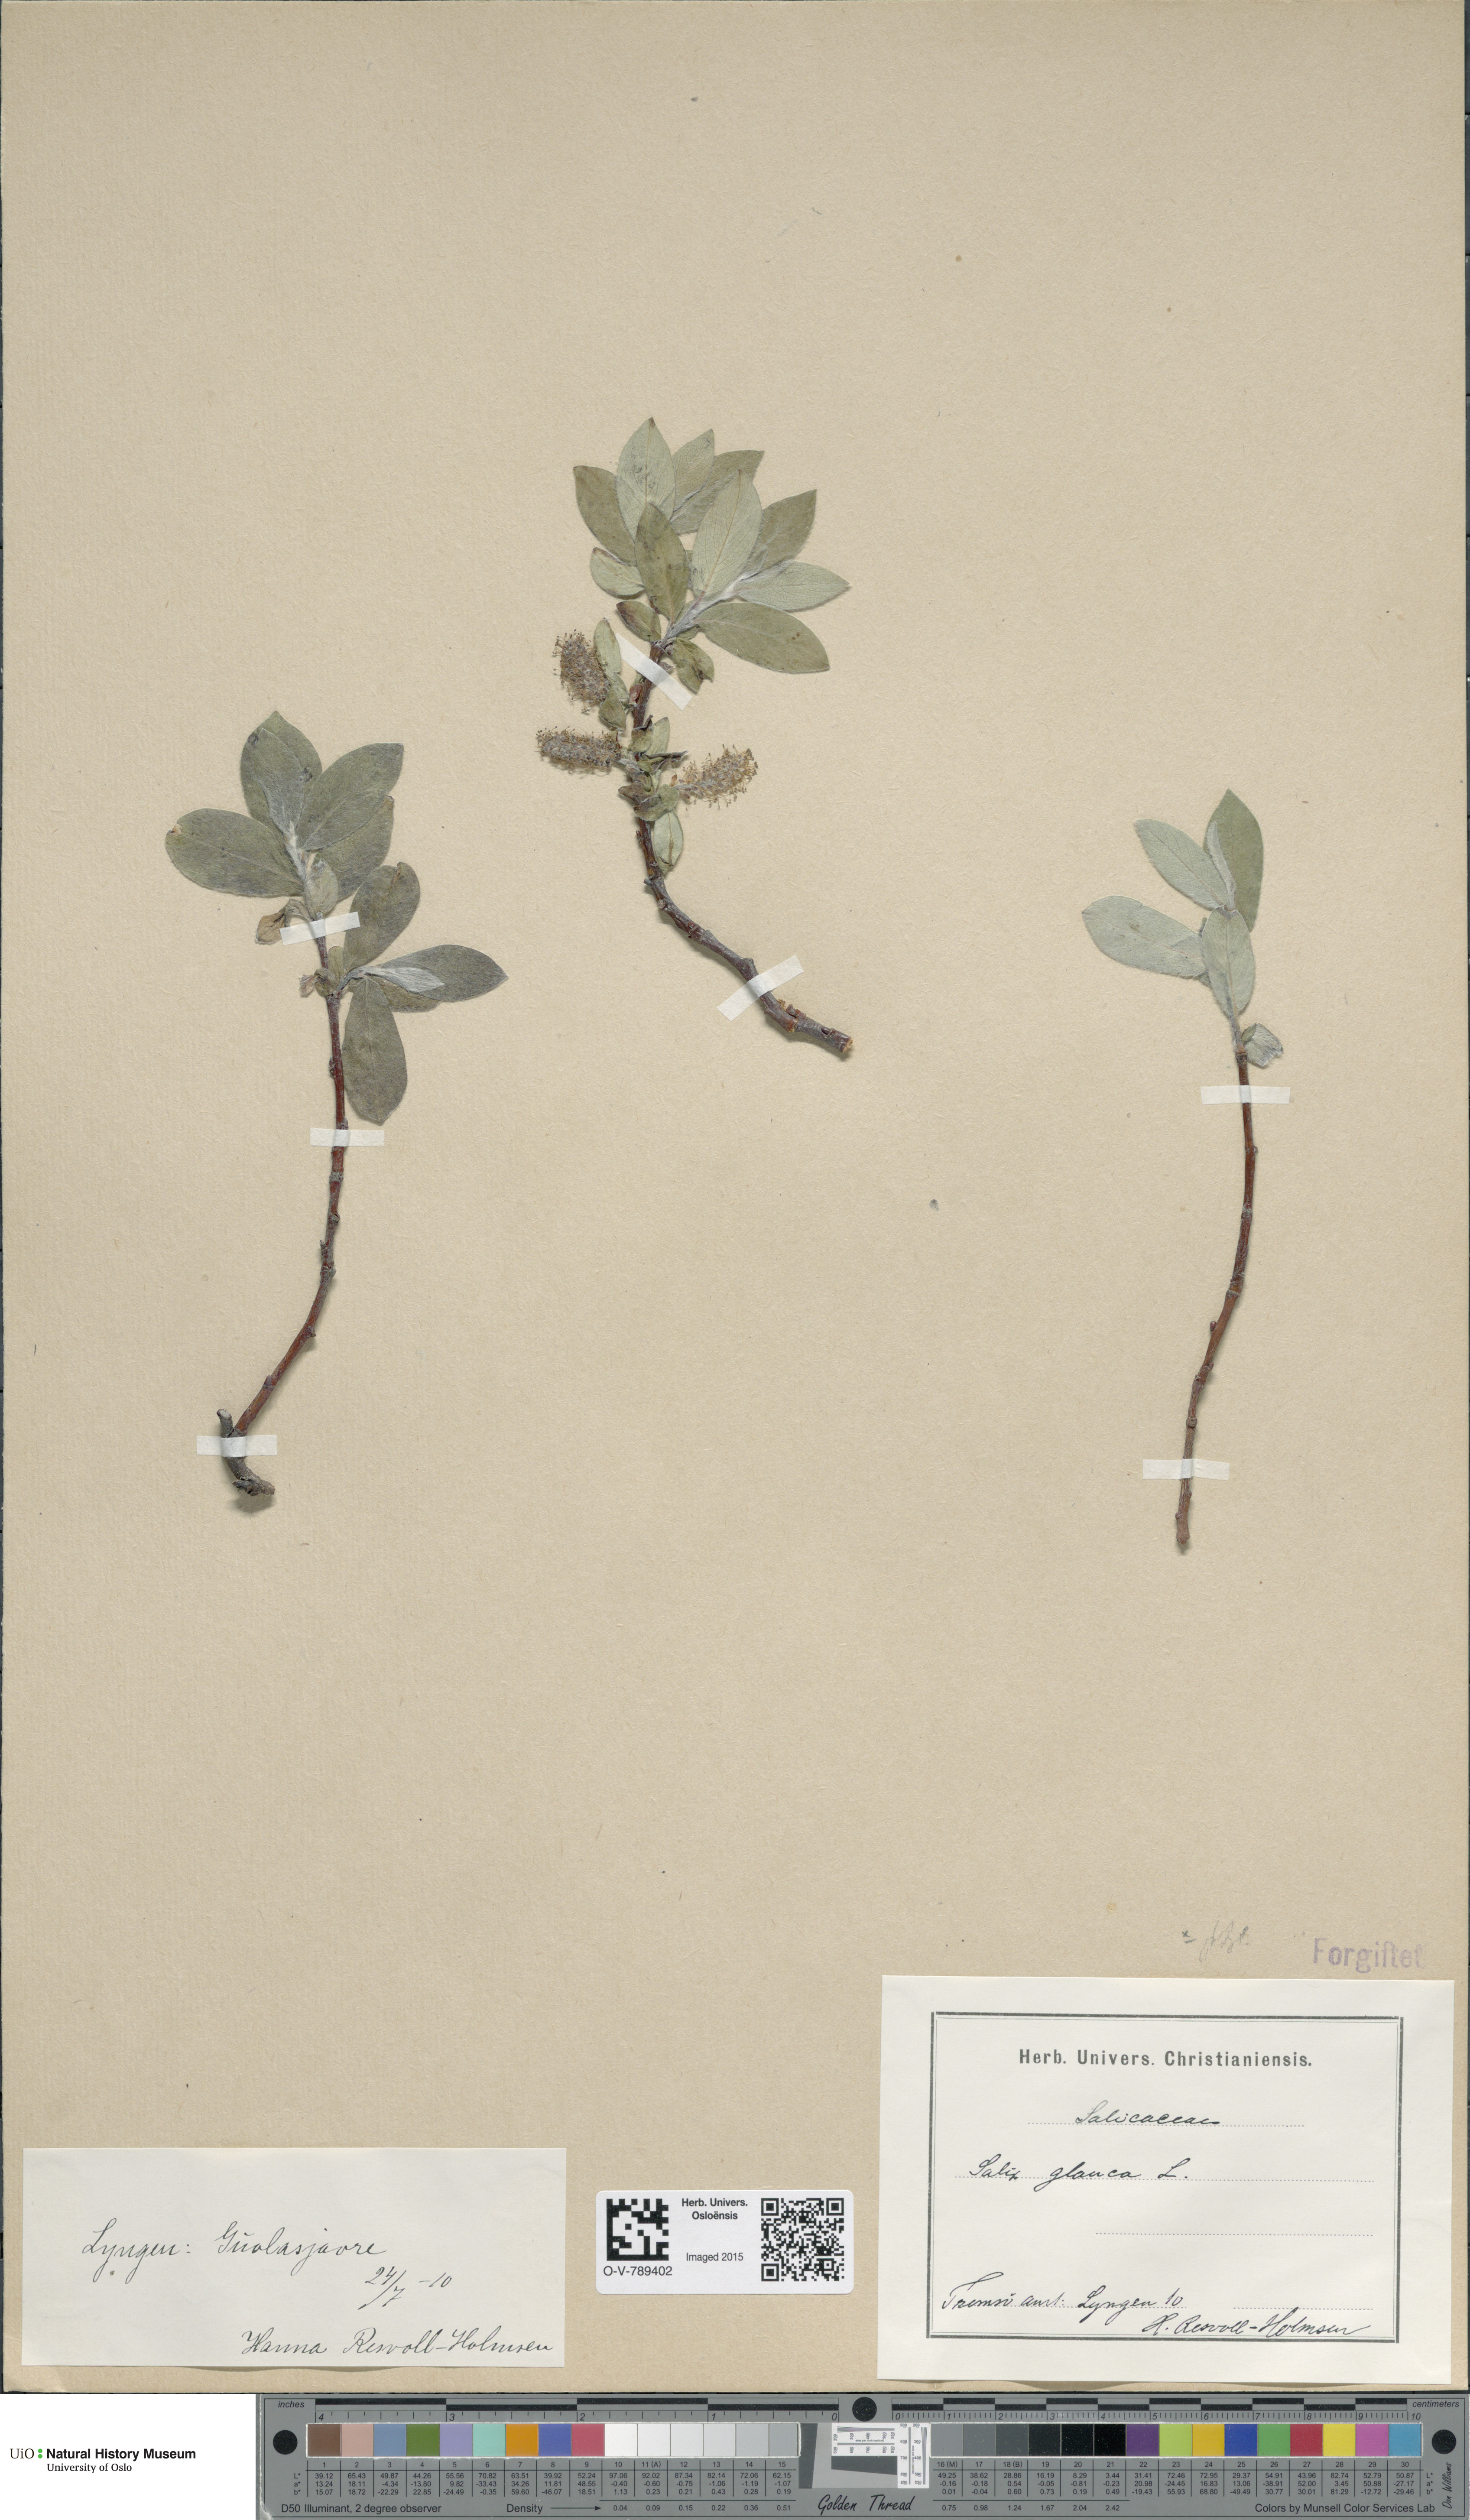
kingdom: Plantae
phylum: Tracheophyta
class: Magnoliopsida
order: Malpighiales
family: Salicaceae
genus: Salix
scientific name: Salix glauca
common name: Glaucous willow
